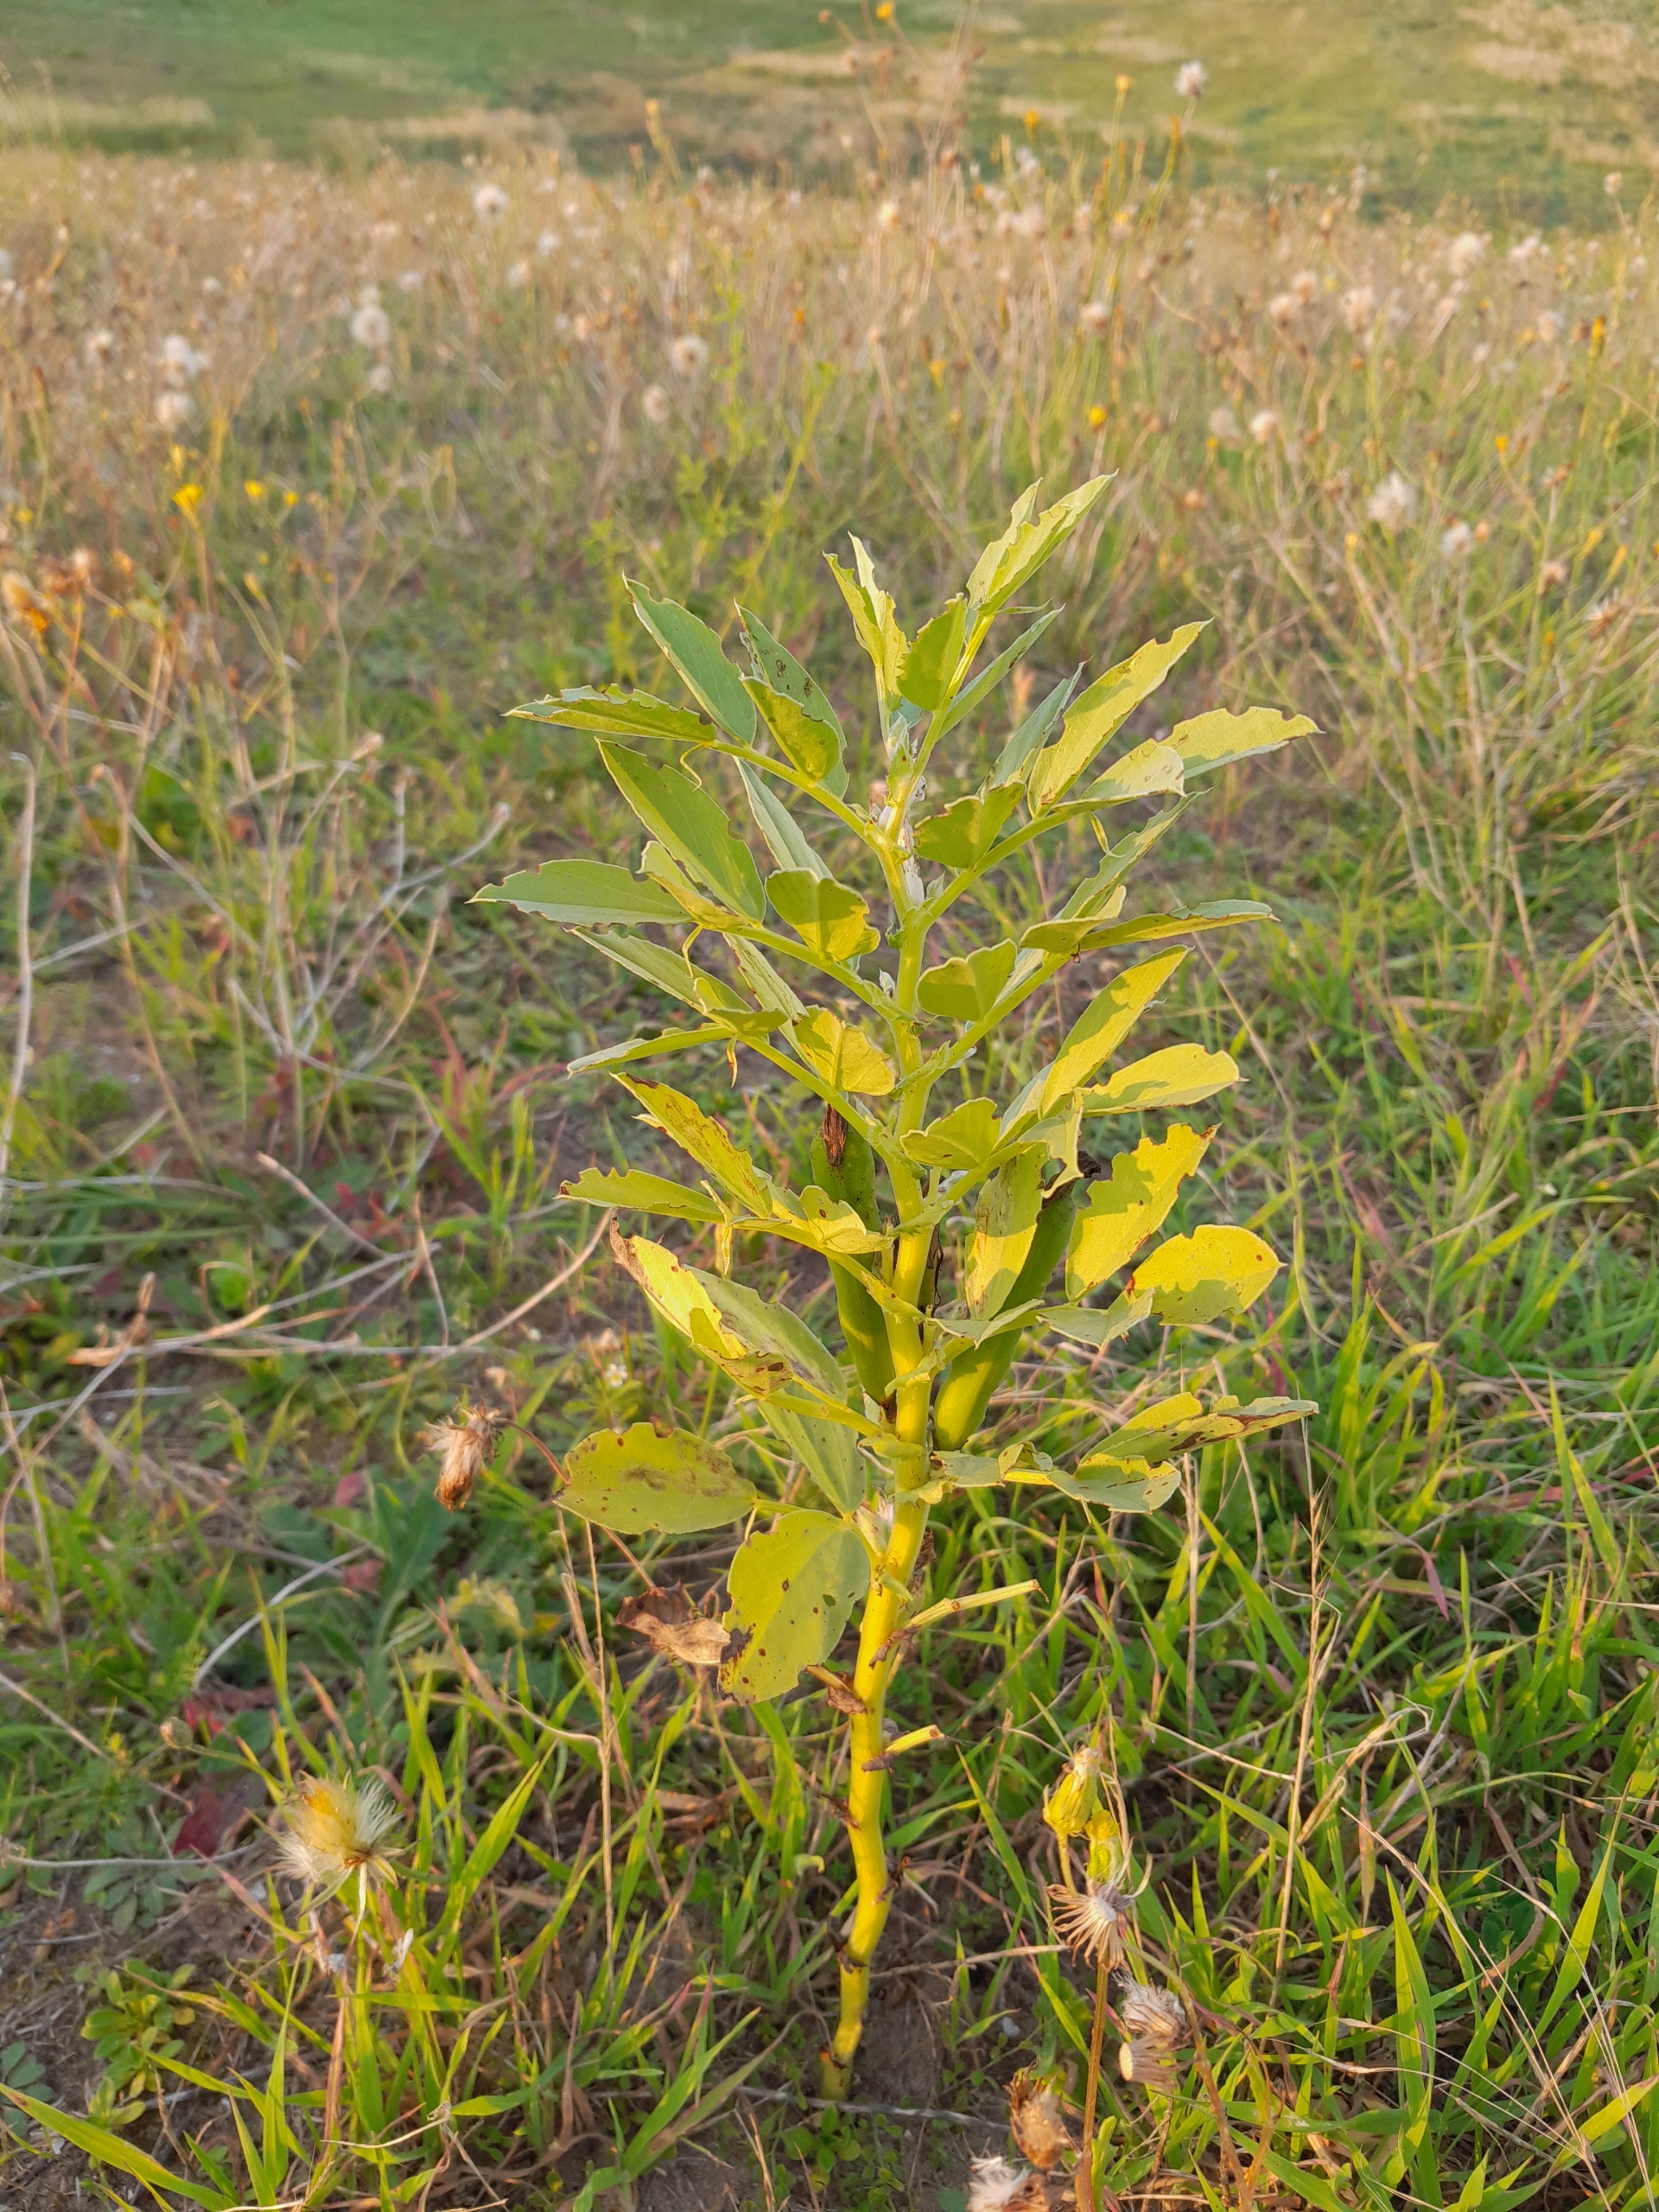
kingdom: Plantae
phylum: Tracheophyta
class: Magnoliopsida
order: Fabales
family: Fabaceae
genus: Vicia
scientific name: Vicia faba
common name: Hestebønne
